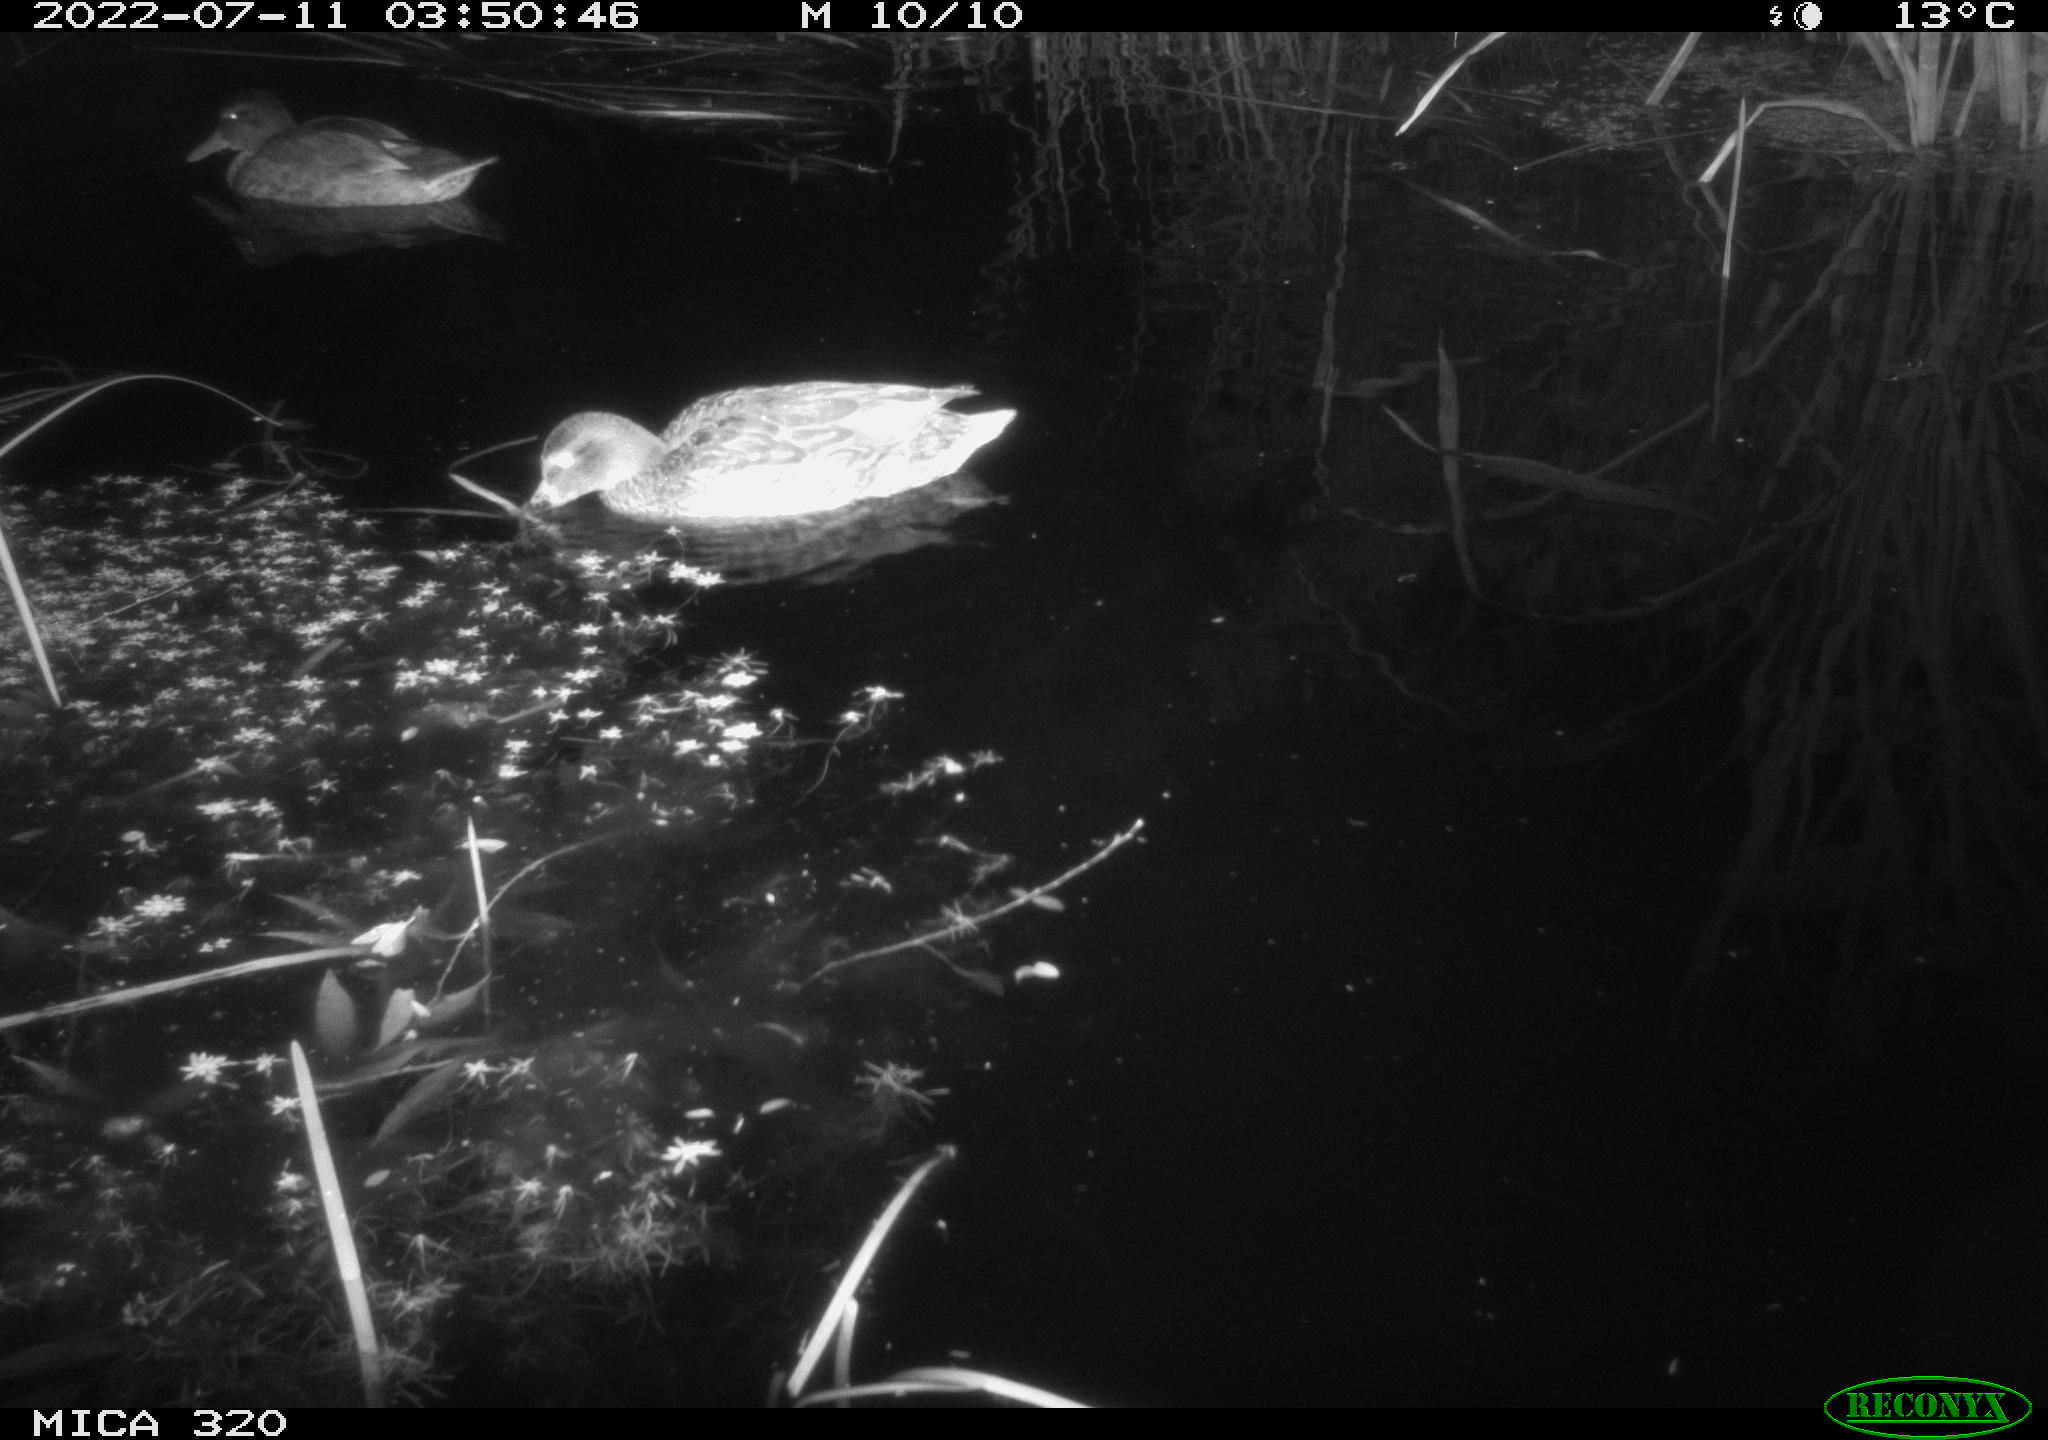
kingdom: Animalia
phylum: Chordata
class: Aves
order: Anseriformes
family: Anatidae
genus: Anas
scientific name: Anas platyrhynchos
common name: Mallard
